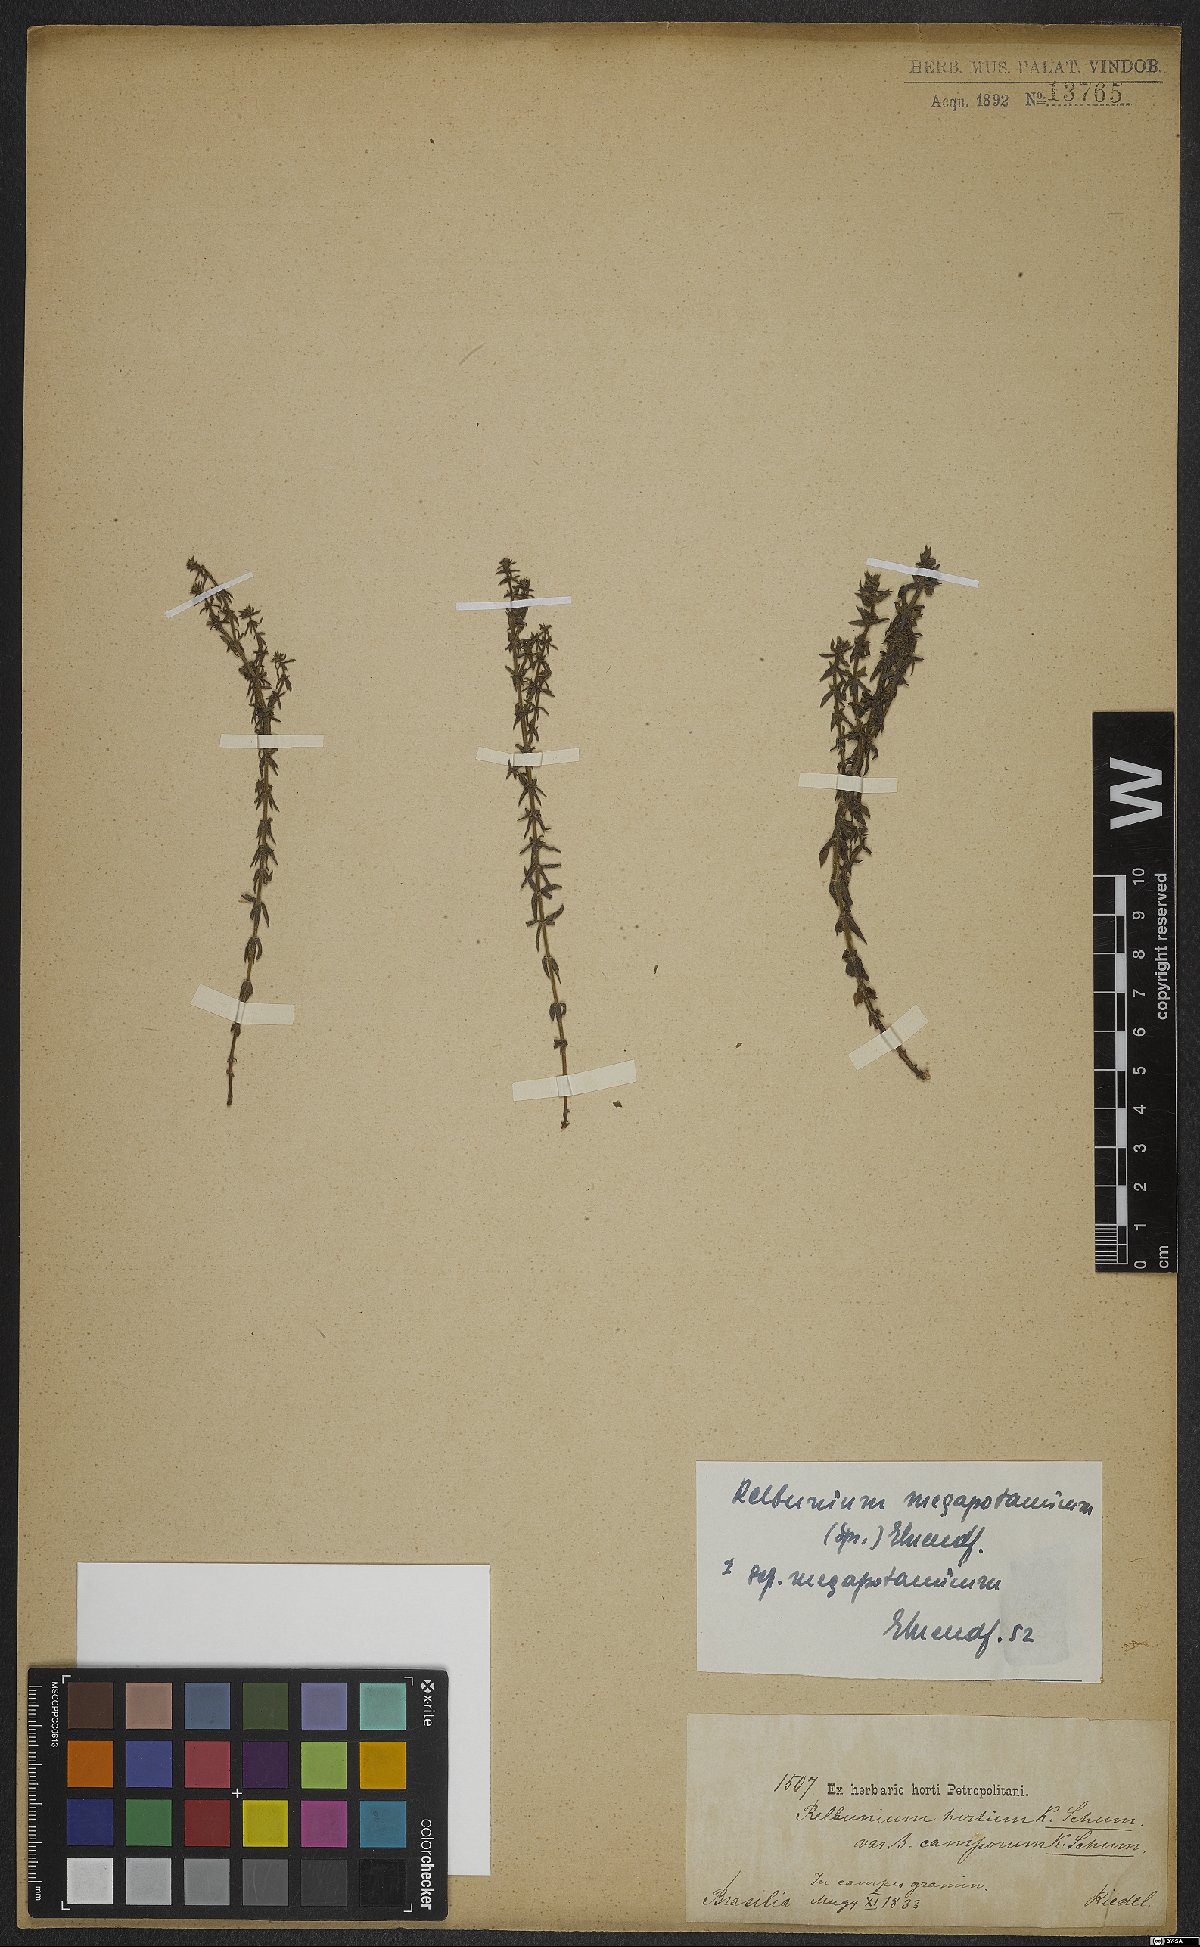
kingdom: Plantae
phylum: Tracheophyta
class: Magnoliopsida
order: Gentianales
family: Rubiaceae
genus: Galium
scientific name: Galium megapotamicum
